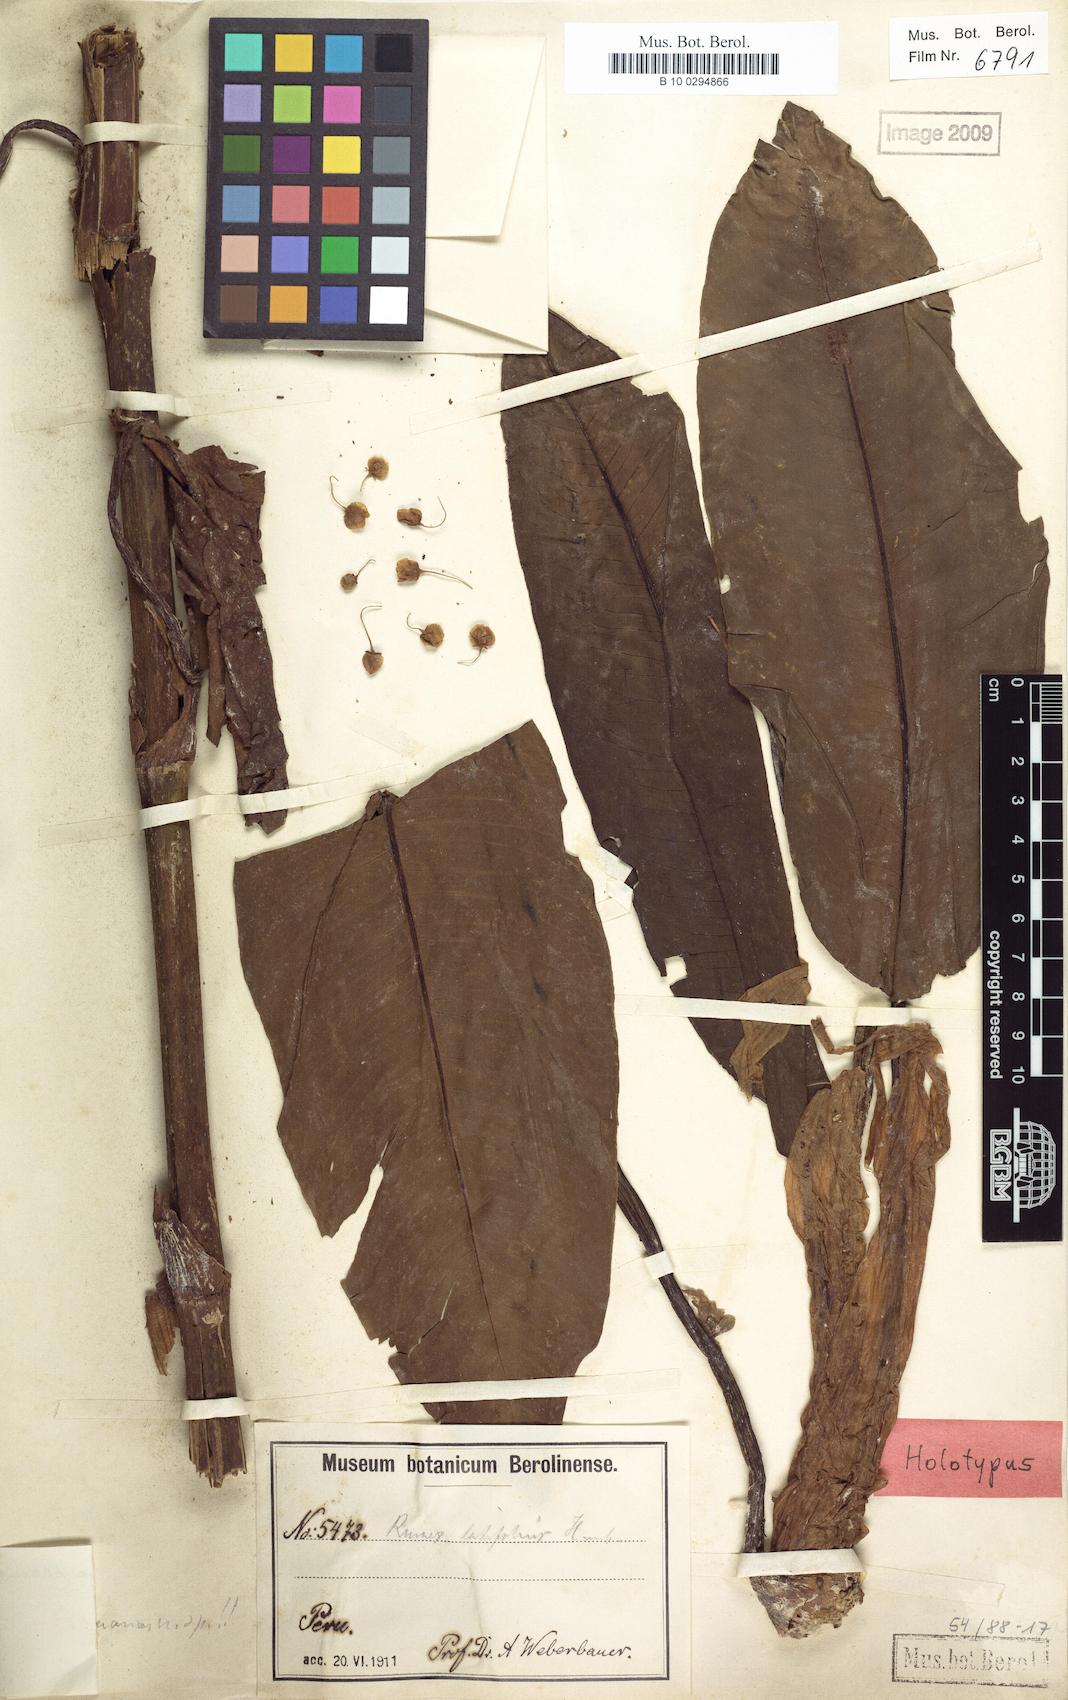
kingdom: Plantae
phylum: Tracheophyta
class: Magnoliopsida
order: Caryophyllales
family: Polygonaceae
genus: Rumex
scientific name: Rumex peruanus
